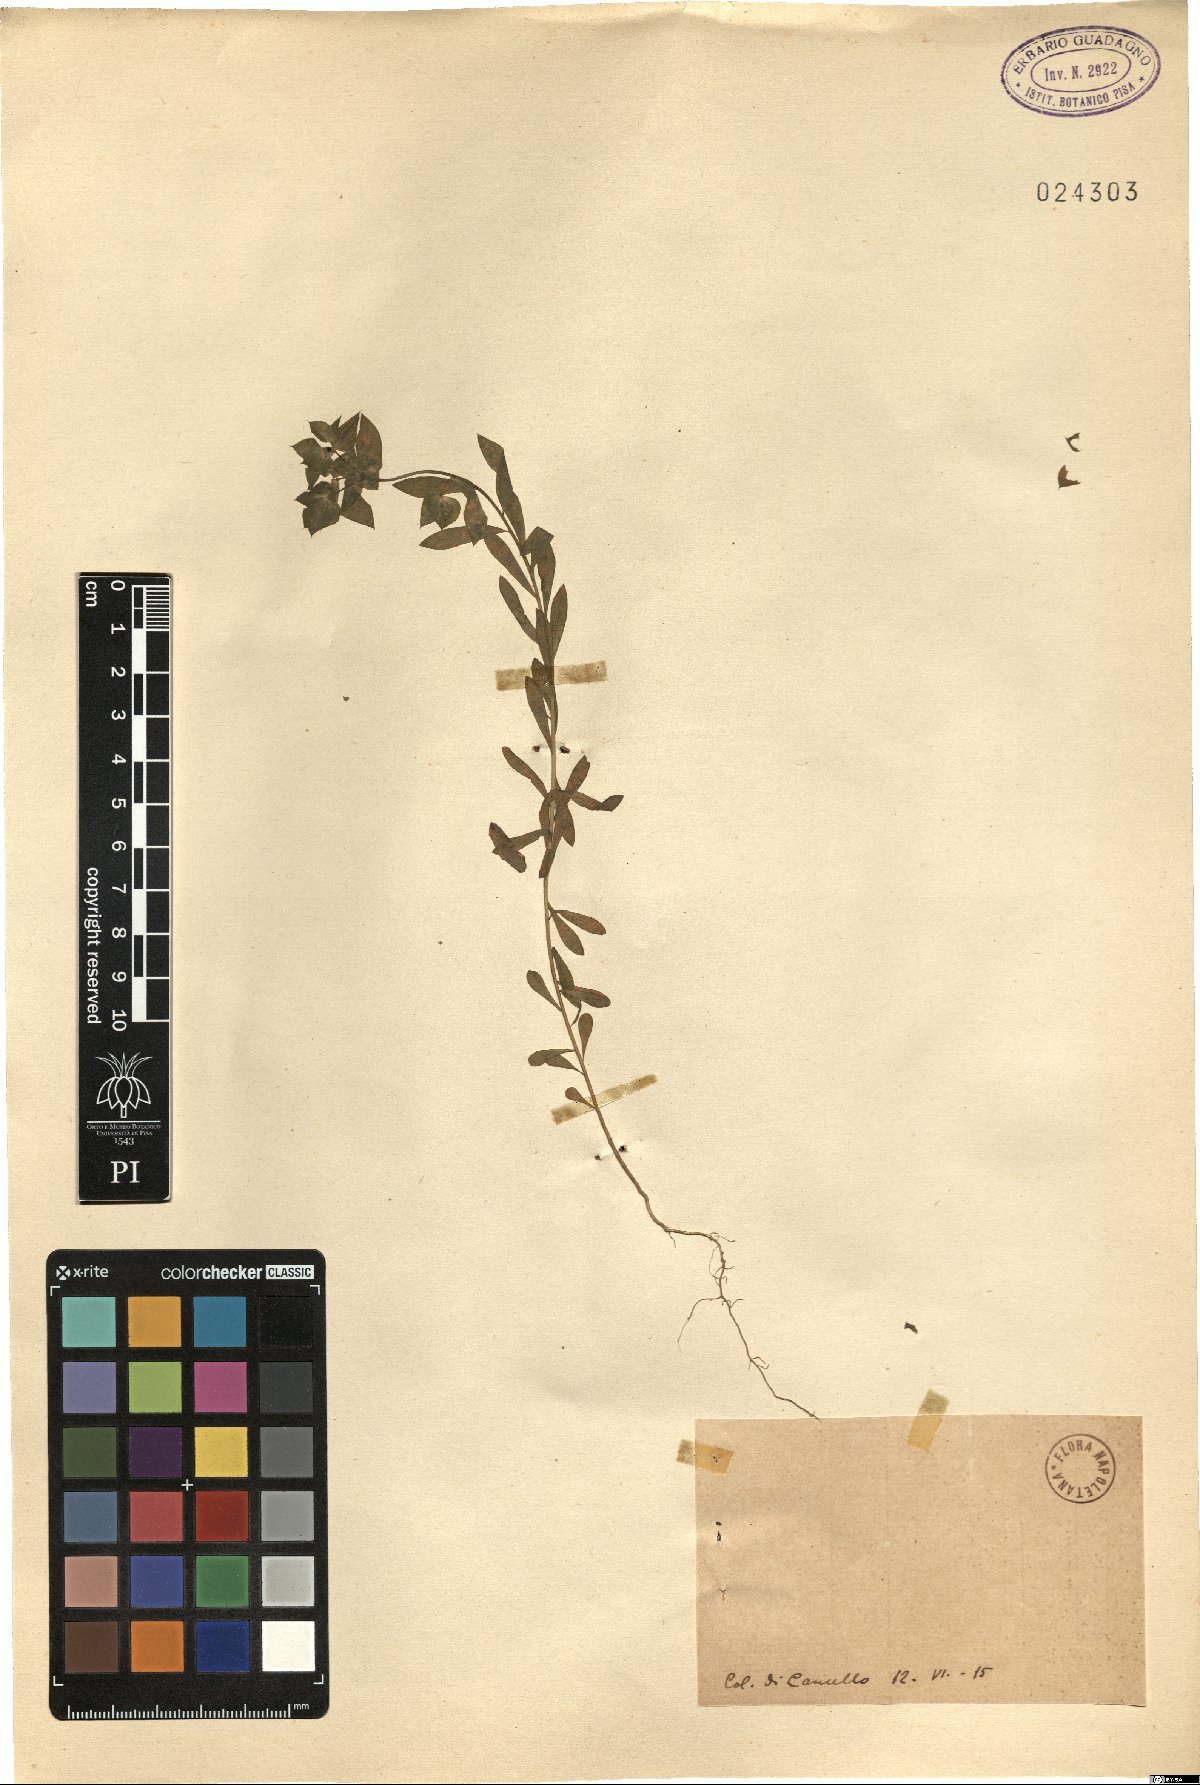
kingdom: Plantae
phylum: Tracheophyta
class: Magnoliopsida
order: Malpighiales
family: Euphorbiaceae
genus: Euphorbia
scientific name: Euphorbia
